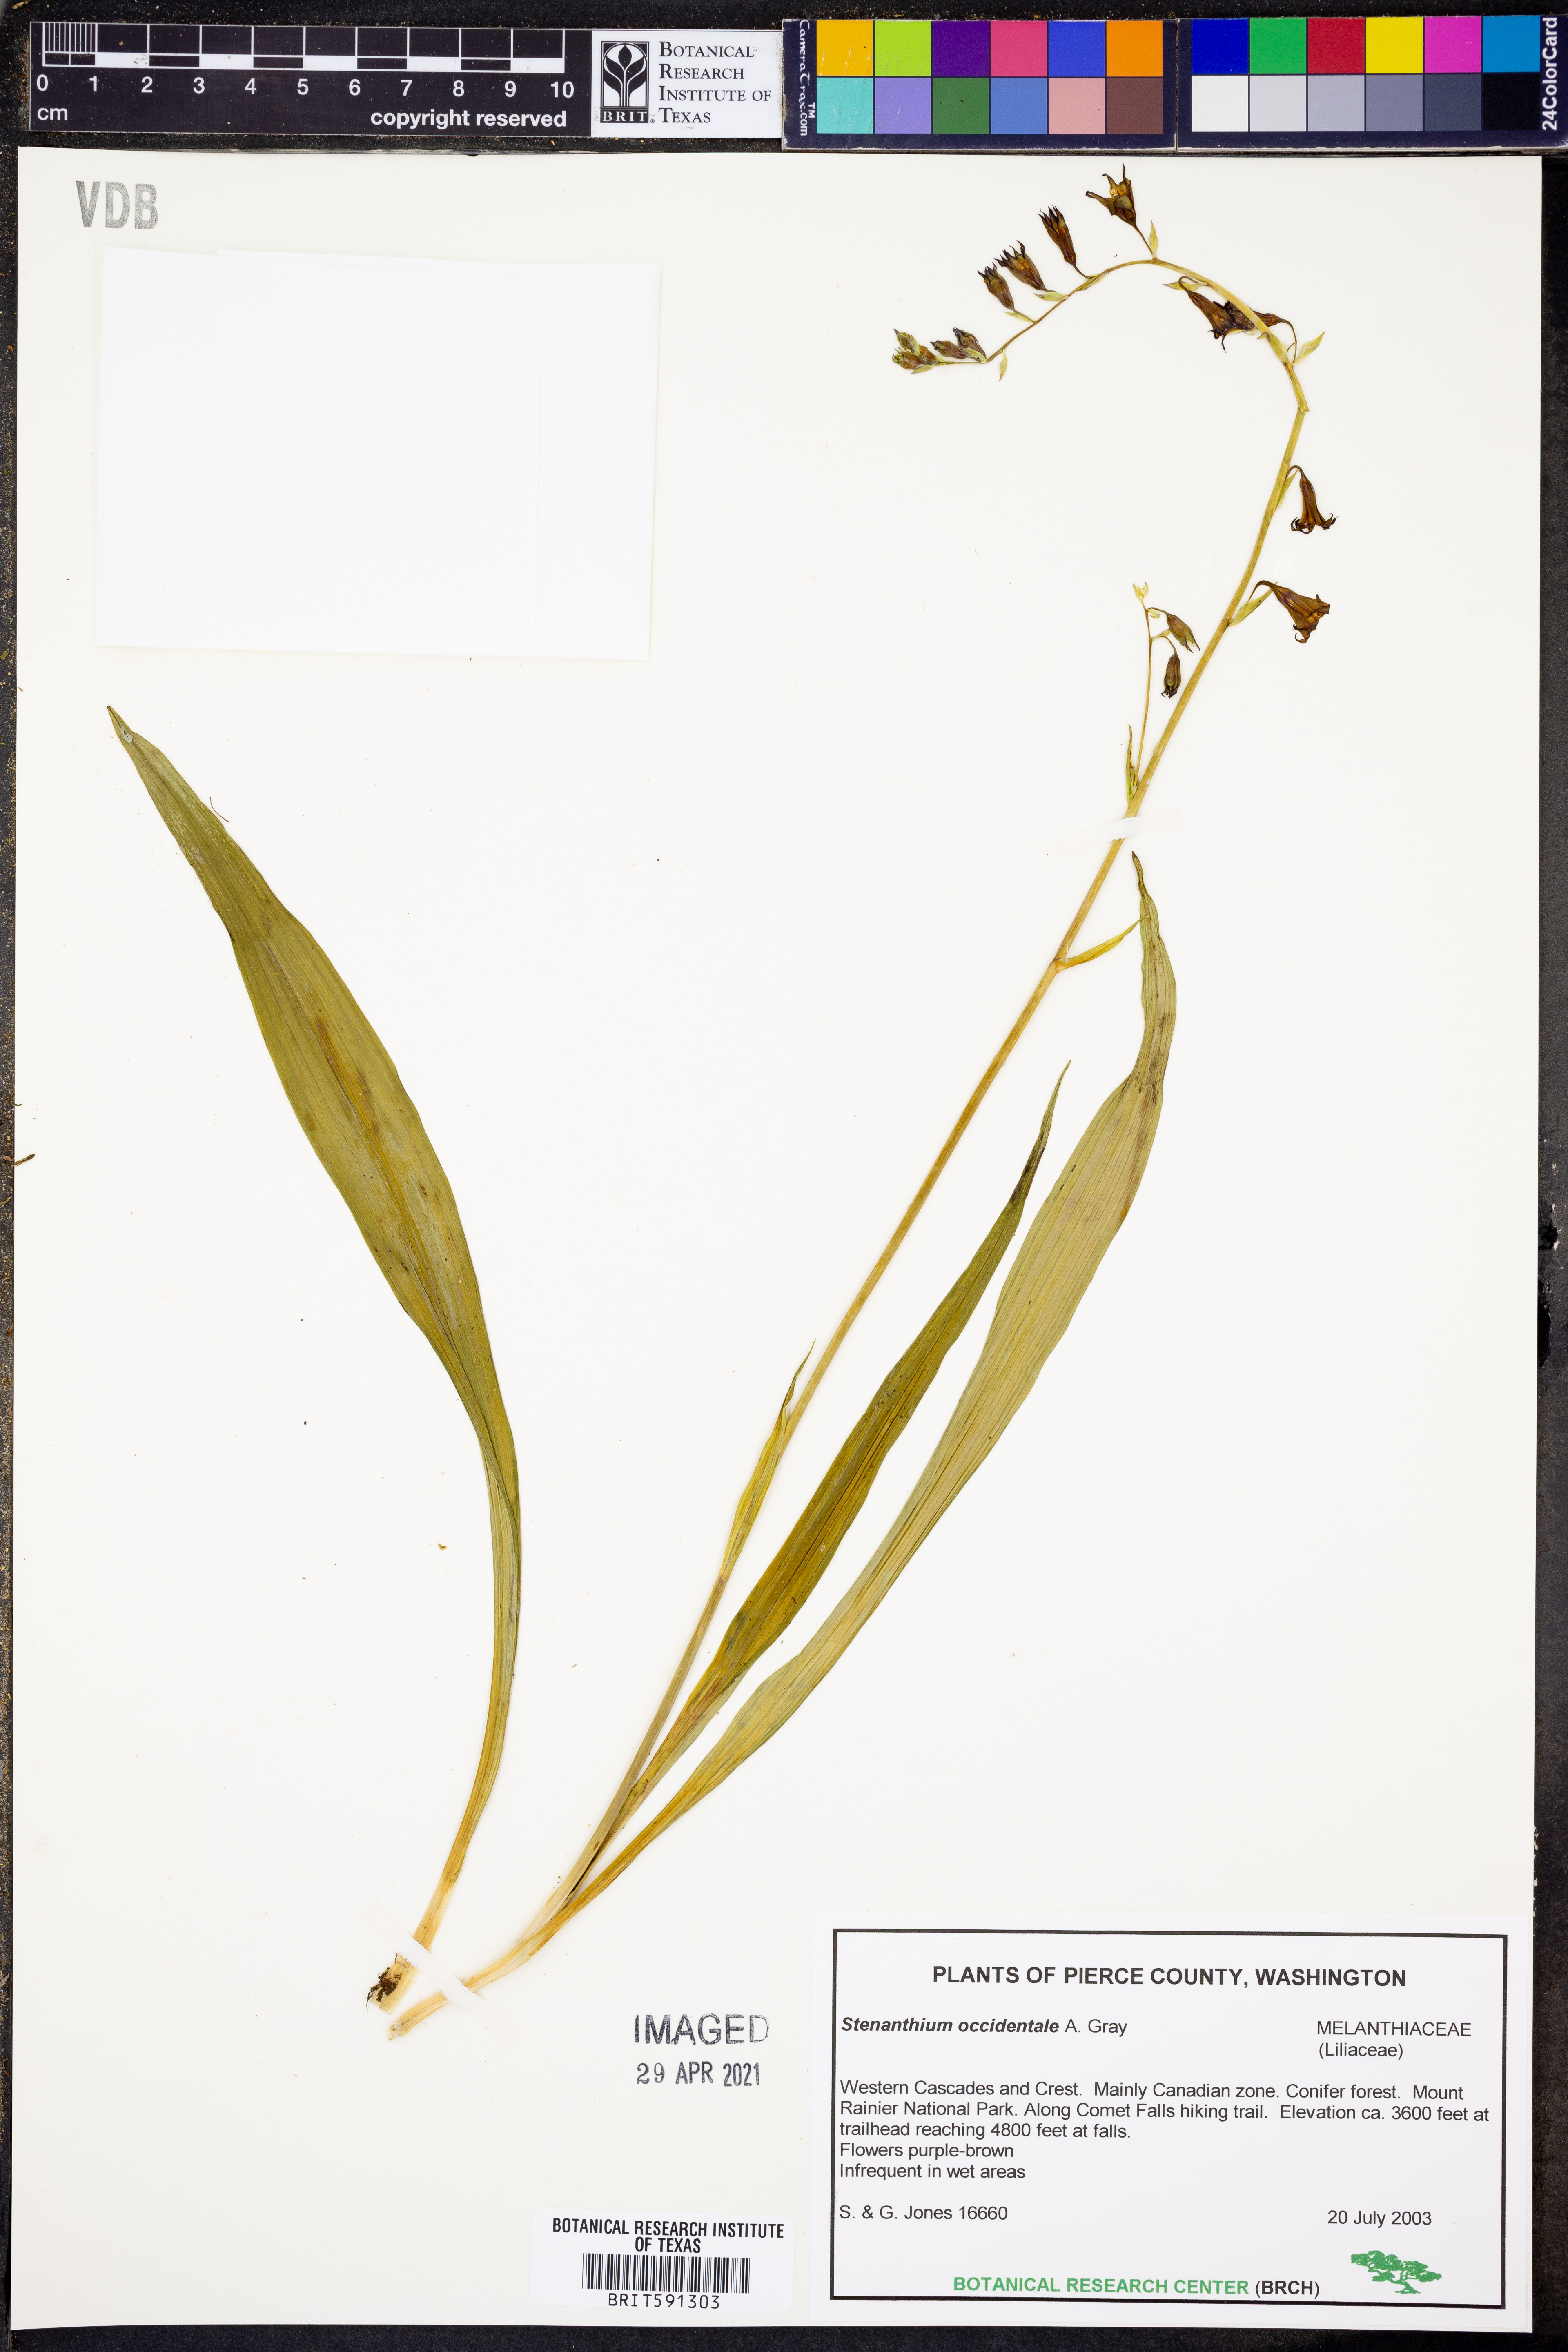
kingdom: Plantae
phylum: Tracheophyta
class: Liliopsida
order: Liliales
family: Melanthiaceae
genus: Anticlea
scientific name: Anticlea occidentalis
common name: Bronze-bells
